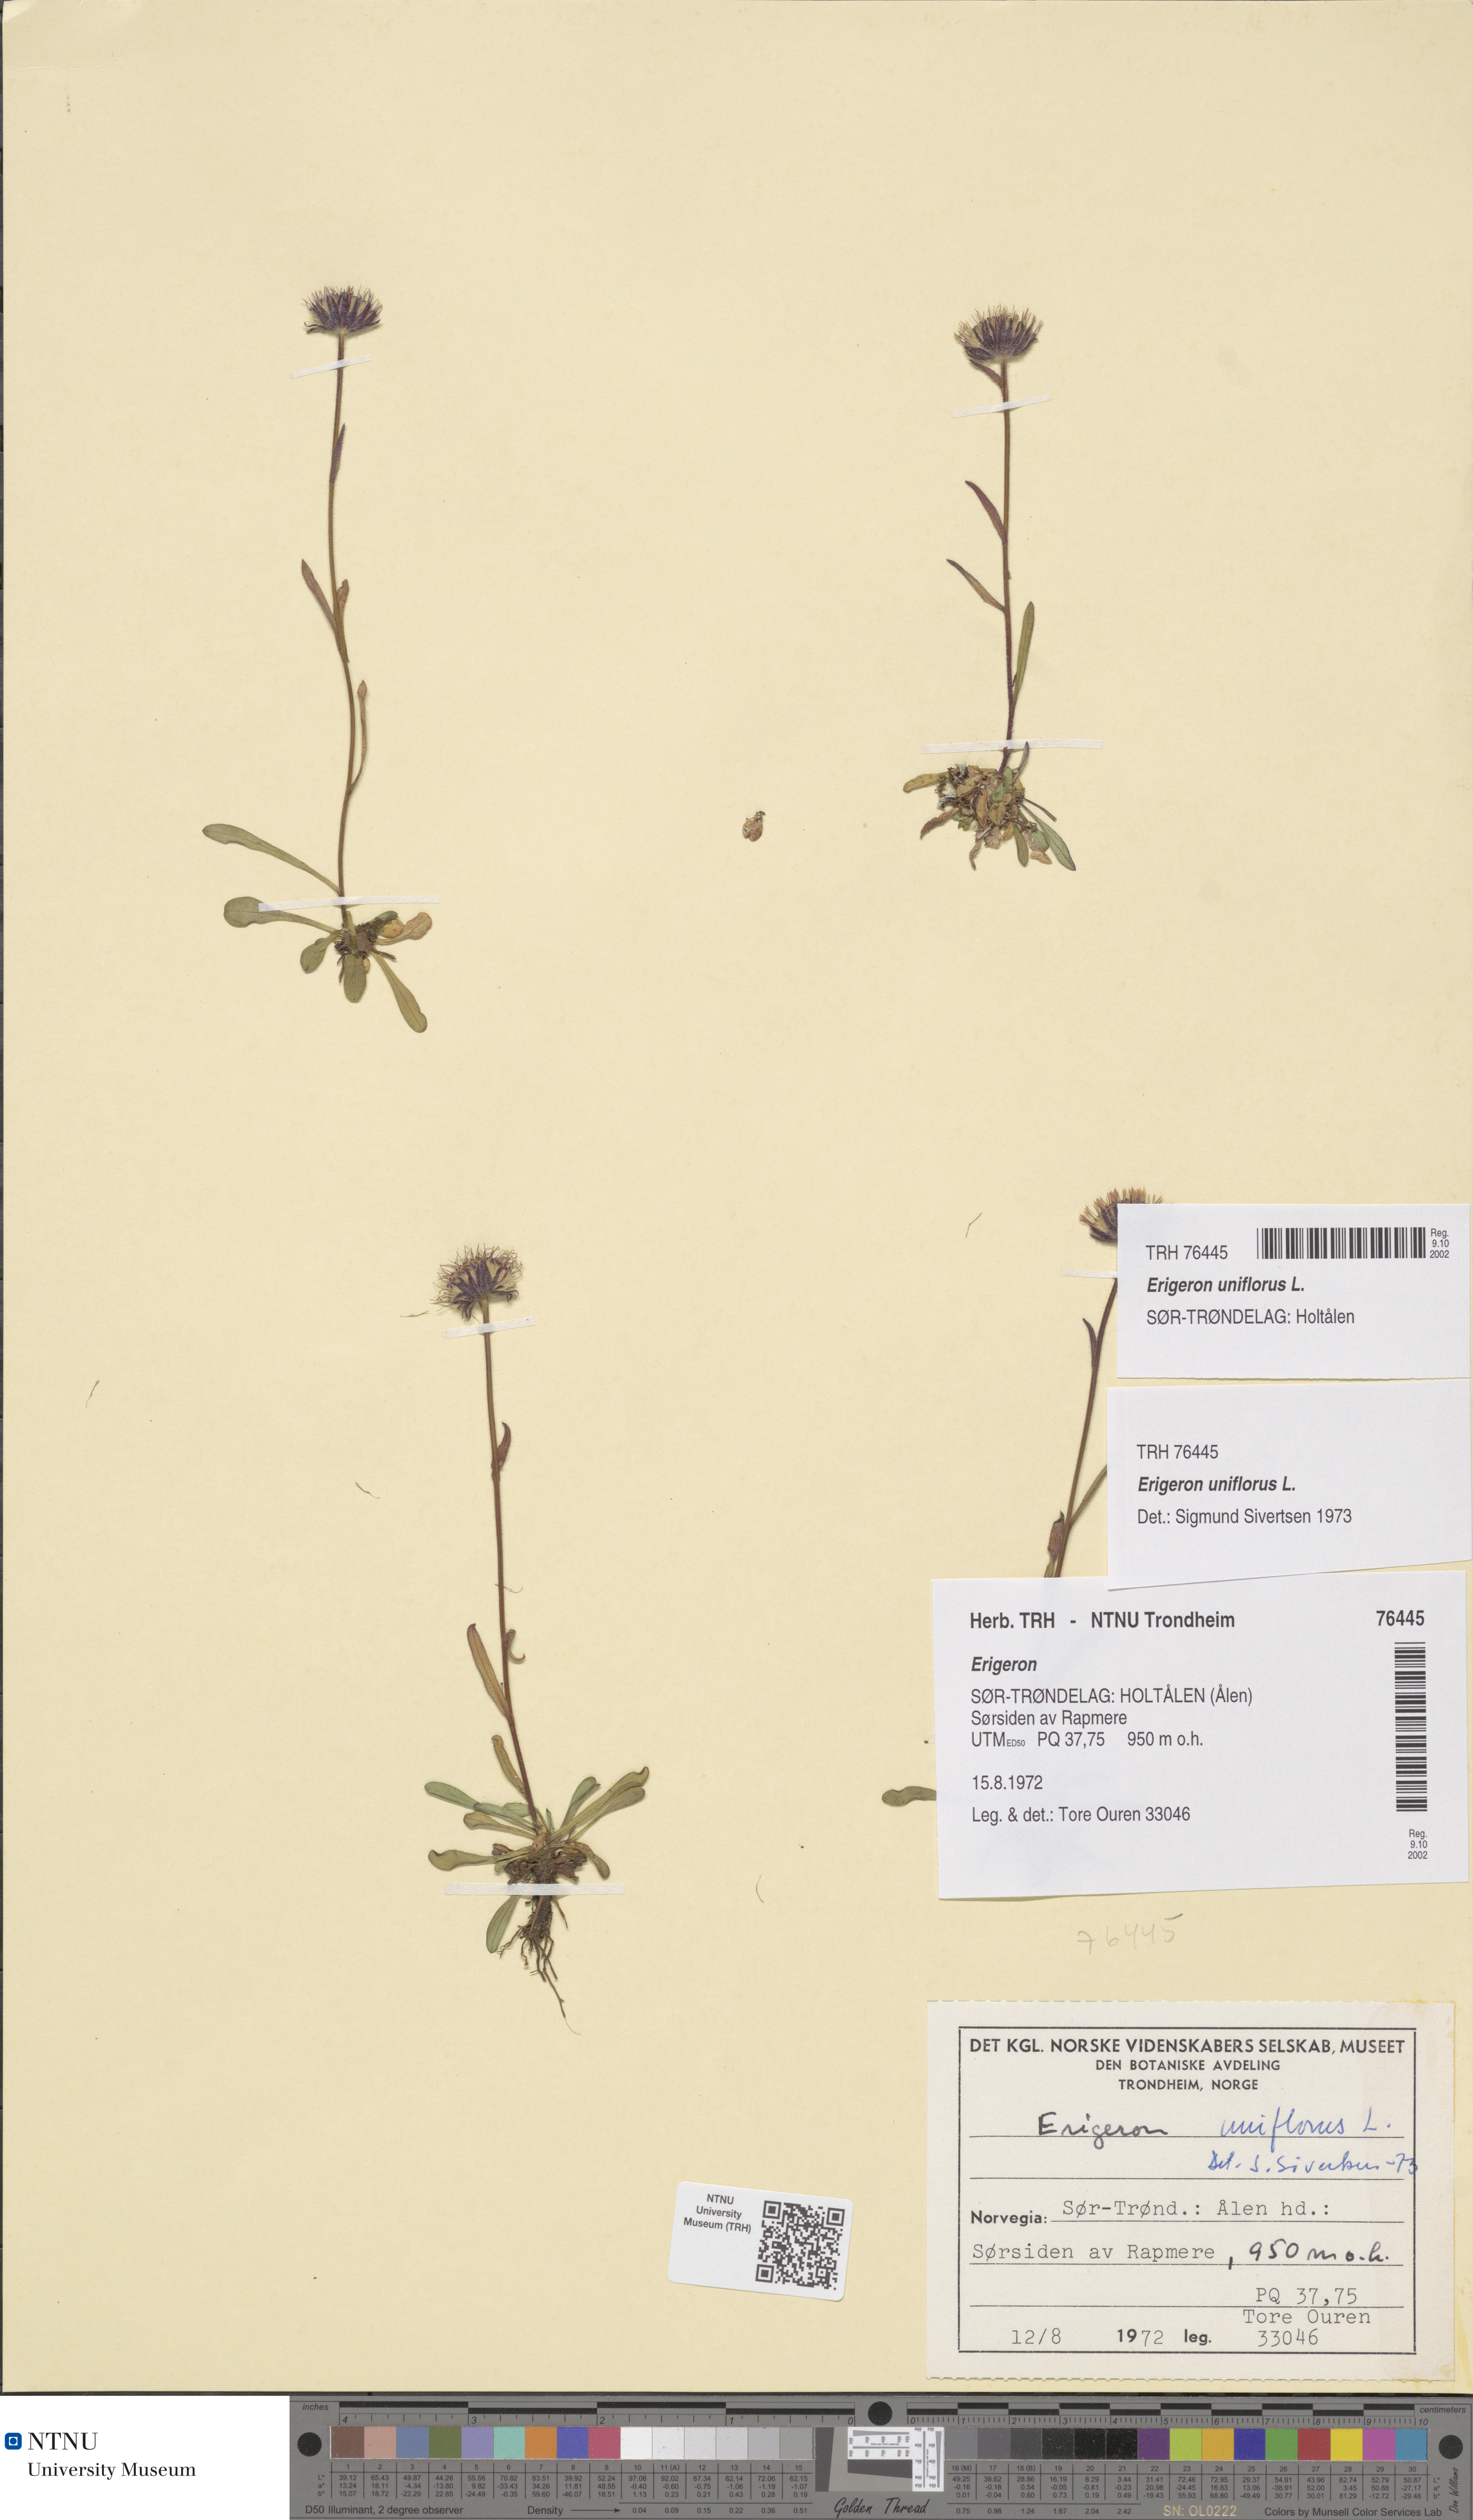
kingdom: Plantae
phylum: Tracheophyta
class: Magnoliopsida
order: Asterales
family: Asteraceae
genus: Erigeron
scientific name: Erigeron uniflorus
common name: Northern daisy
